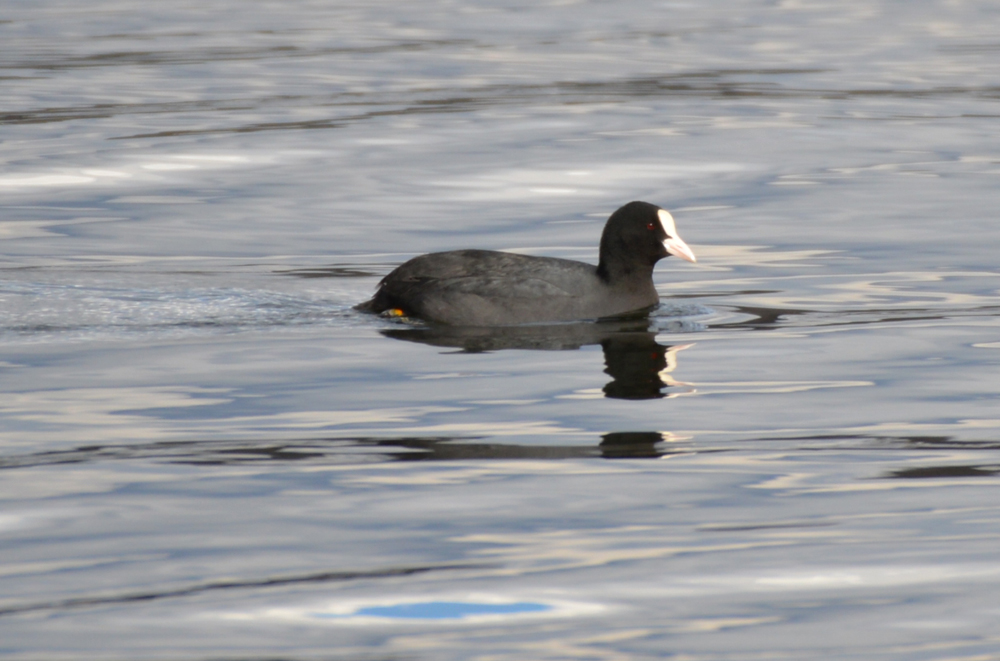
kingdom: Animalia
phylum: Chordata
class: Aves
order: Gruiformes
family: Rallidae
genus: Fulica
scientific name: Fulica atra
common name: Eurasian coot
